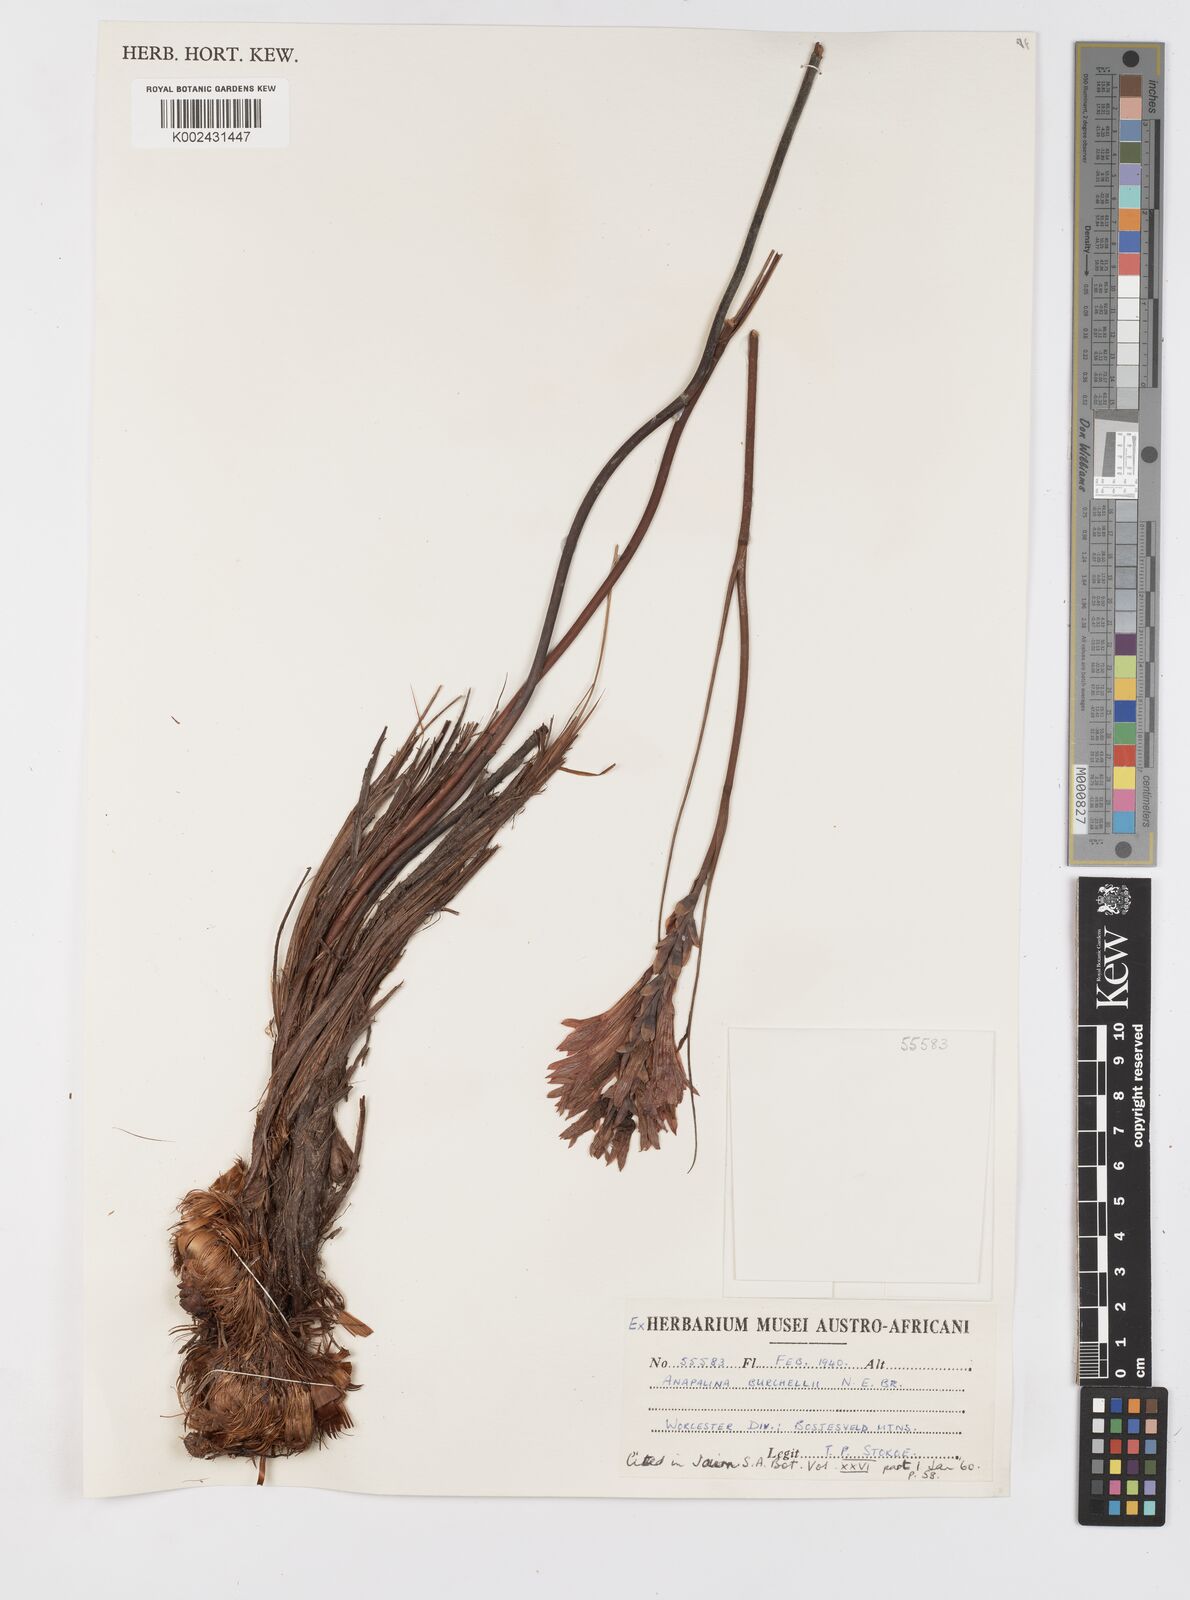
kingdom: Plantae
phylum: Tracheophyta
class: Liliopsida
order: Asparagales
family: Iridaceae
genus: Tritoniopsis
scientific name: Tritoniopsis triticea
